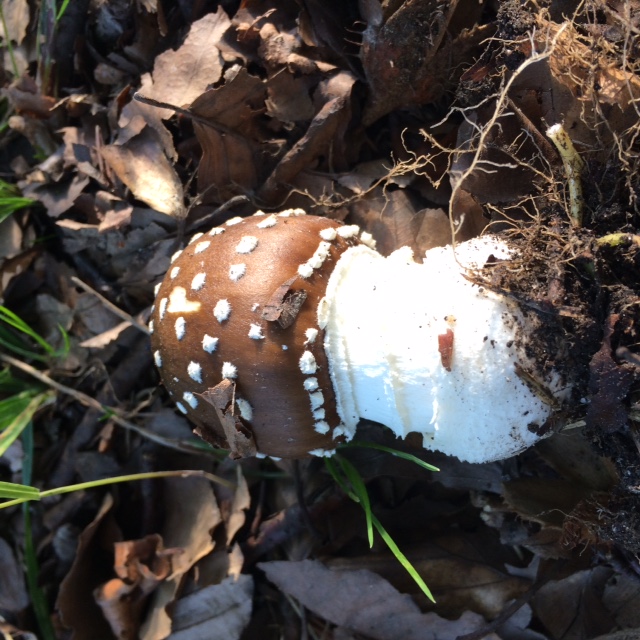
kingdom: Fungi
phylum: Basidiomycota
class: Agaricomycetes
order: Agaricales
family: Amanitaceae
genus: Amanita
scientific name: Amanita pantherina
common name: panter-fluesvamp
